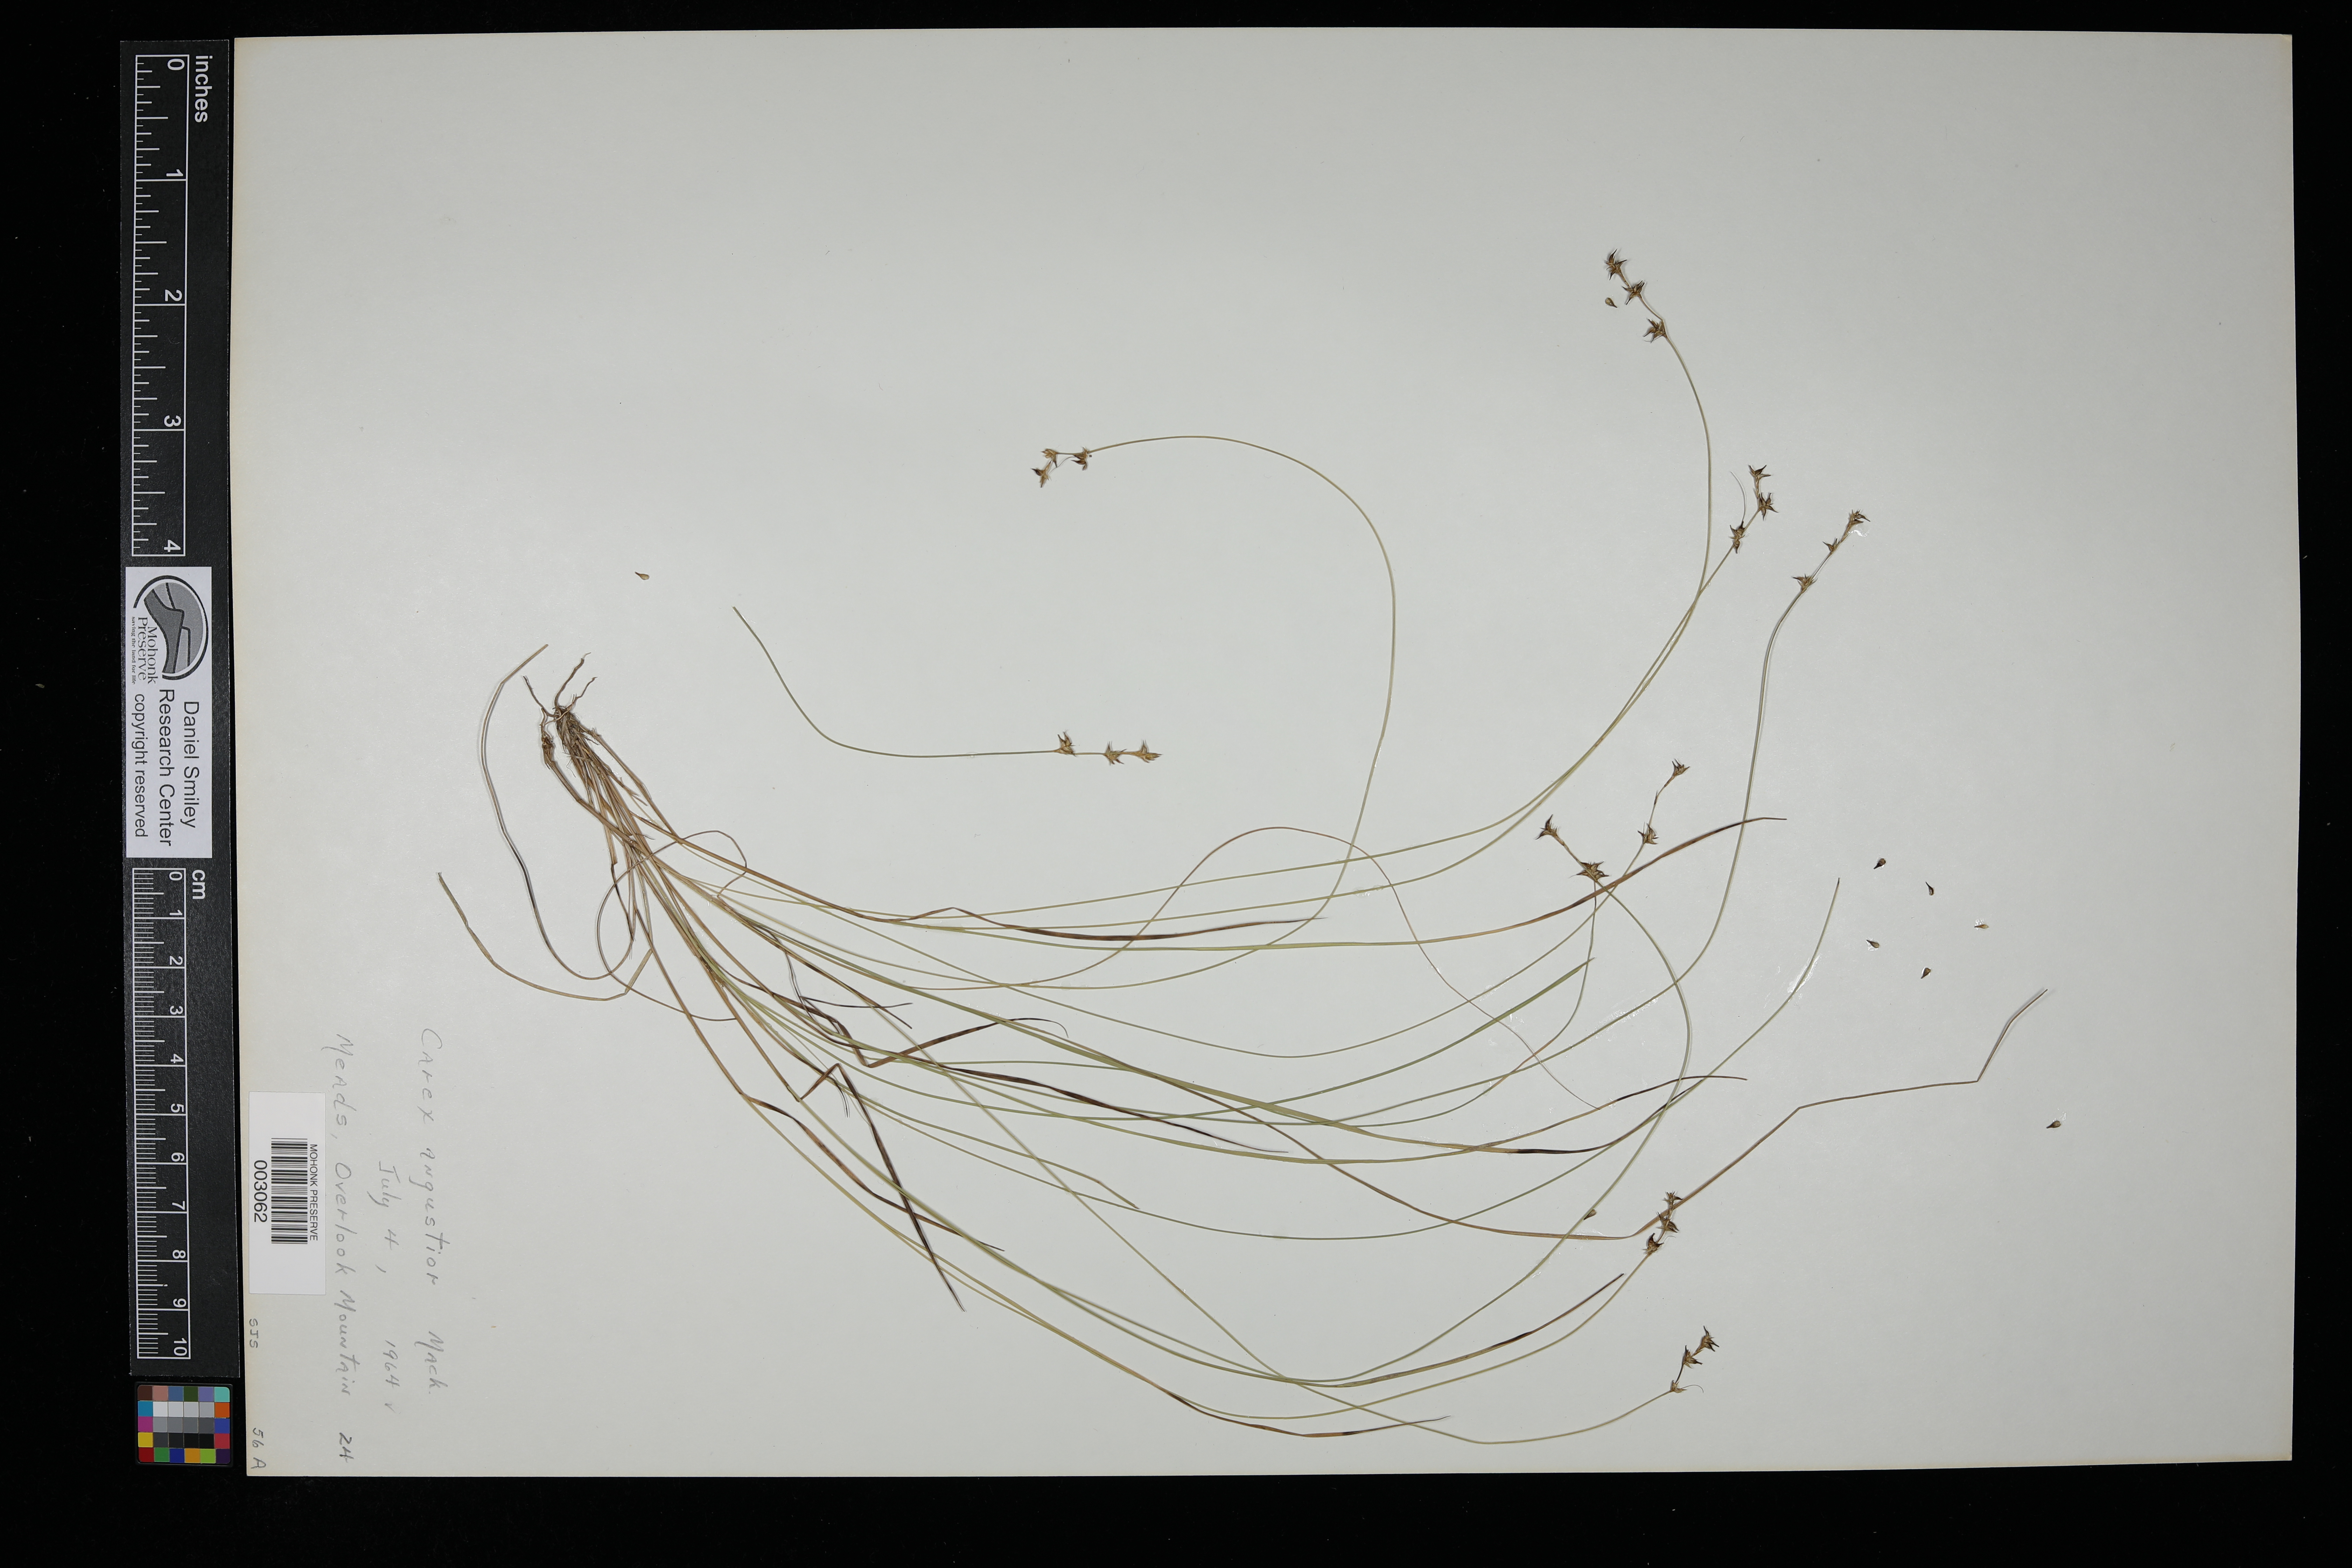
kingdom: Plantae
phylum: Tracheophyta
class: Liliopsida
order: Poales
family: Cyperaceae
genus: Carex
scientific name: Carex echinata
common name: Star sedge
